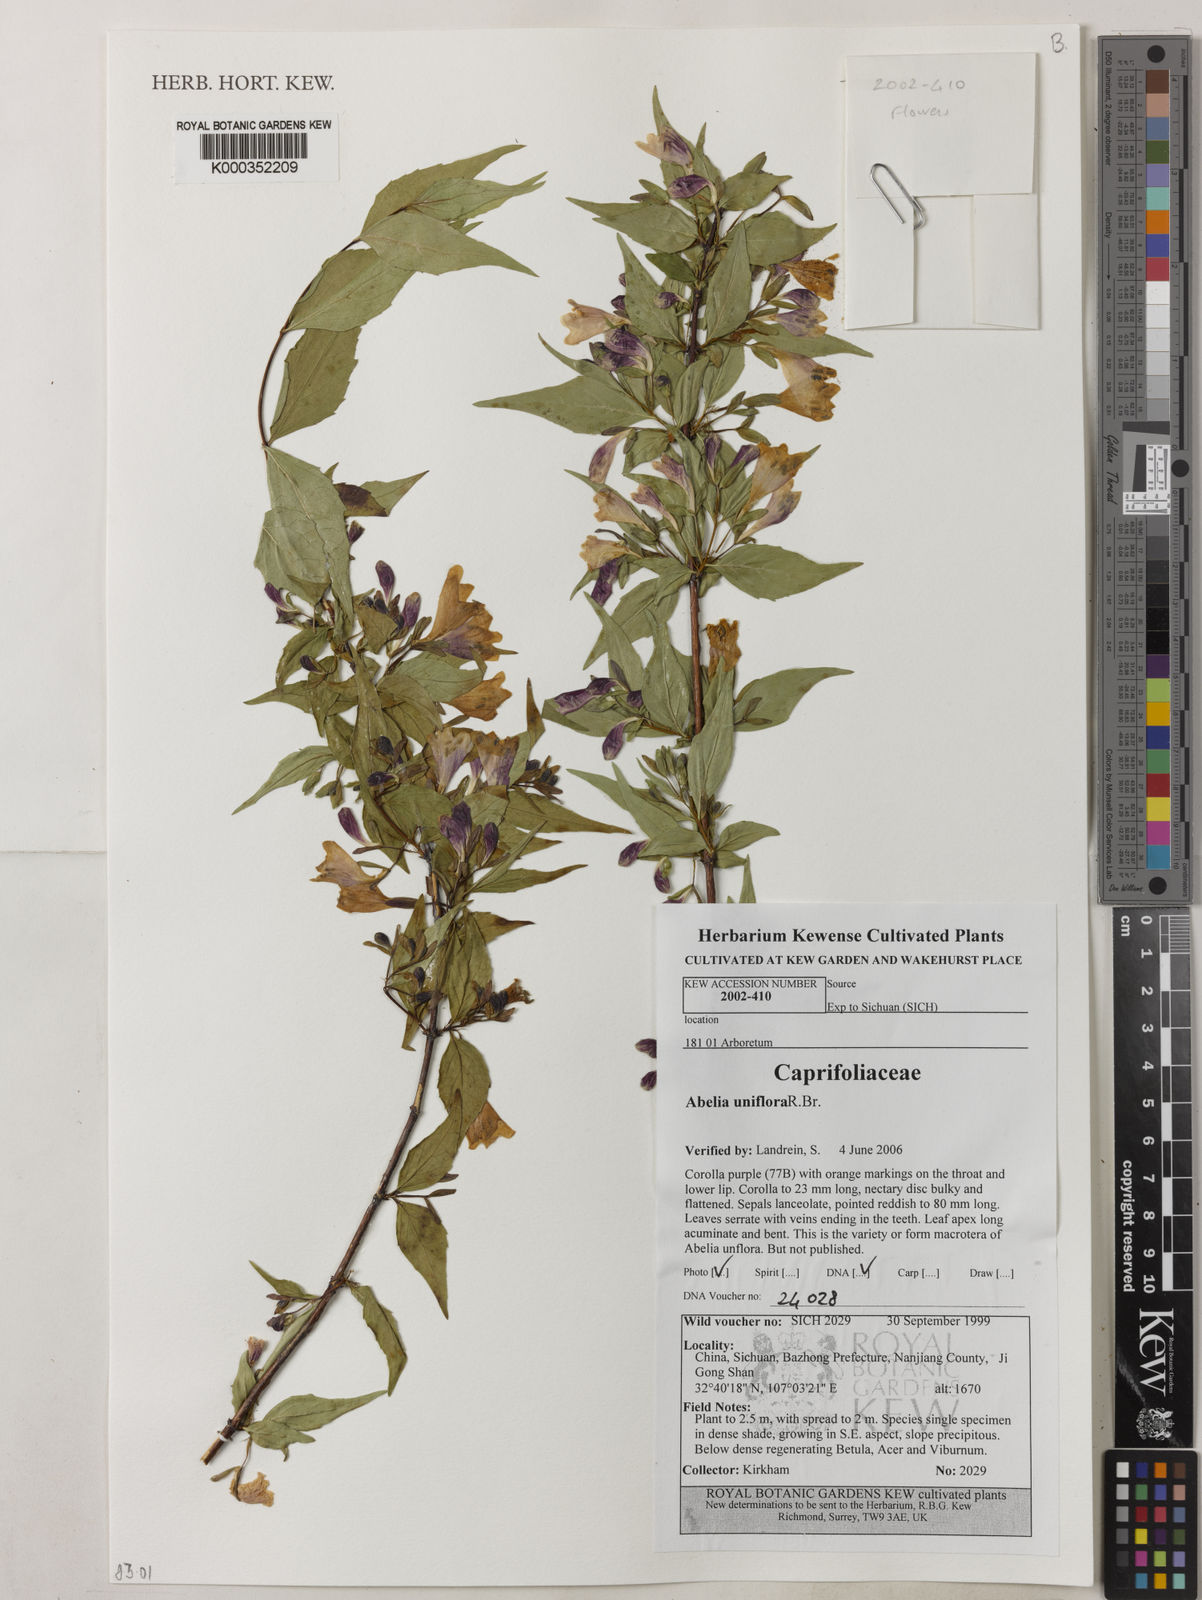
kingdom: Plantae
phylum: Tracheophyta
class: Magnoliopsida
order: Dipsacales
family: Caprifoliaceae
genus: Abelia
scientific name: Abelia uniflora
